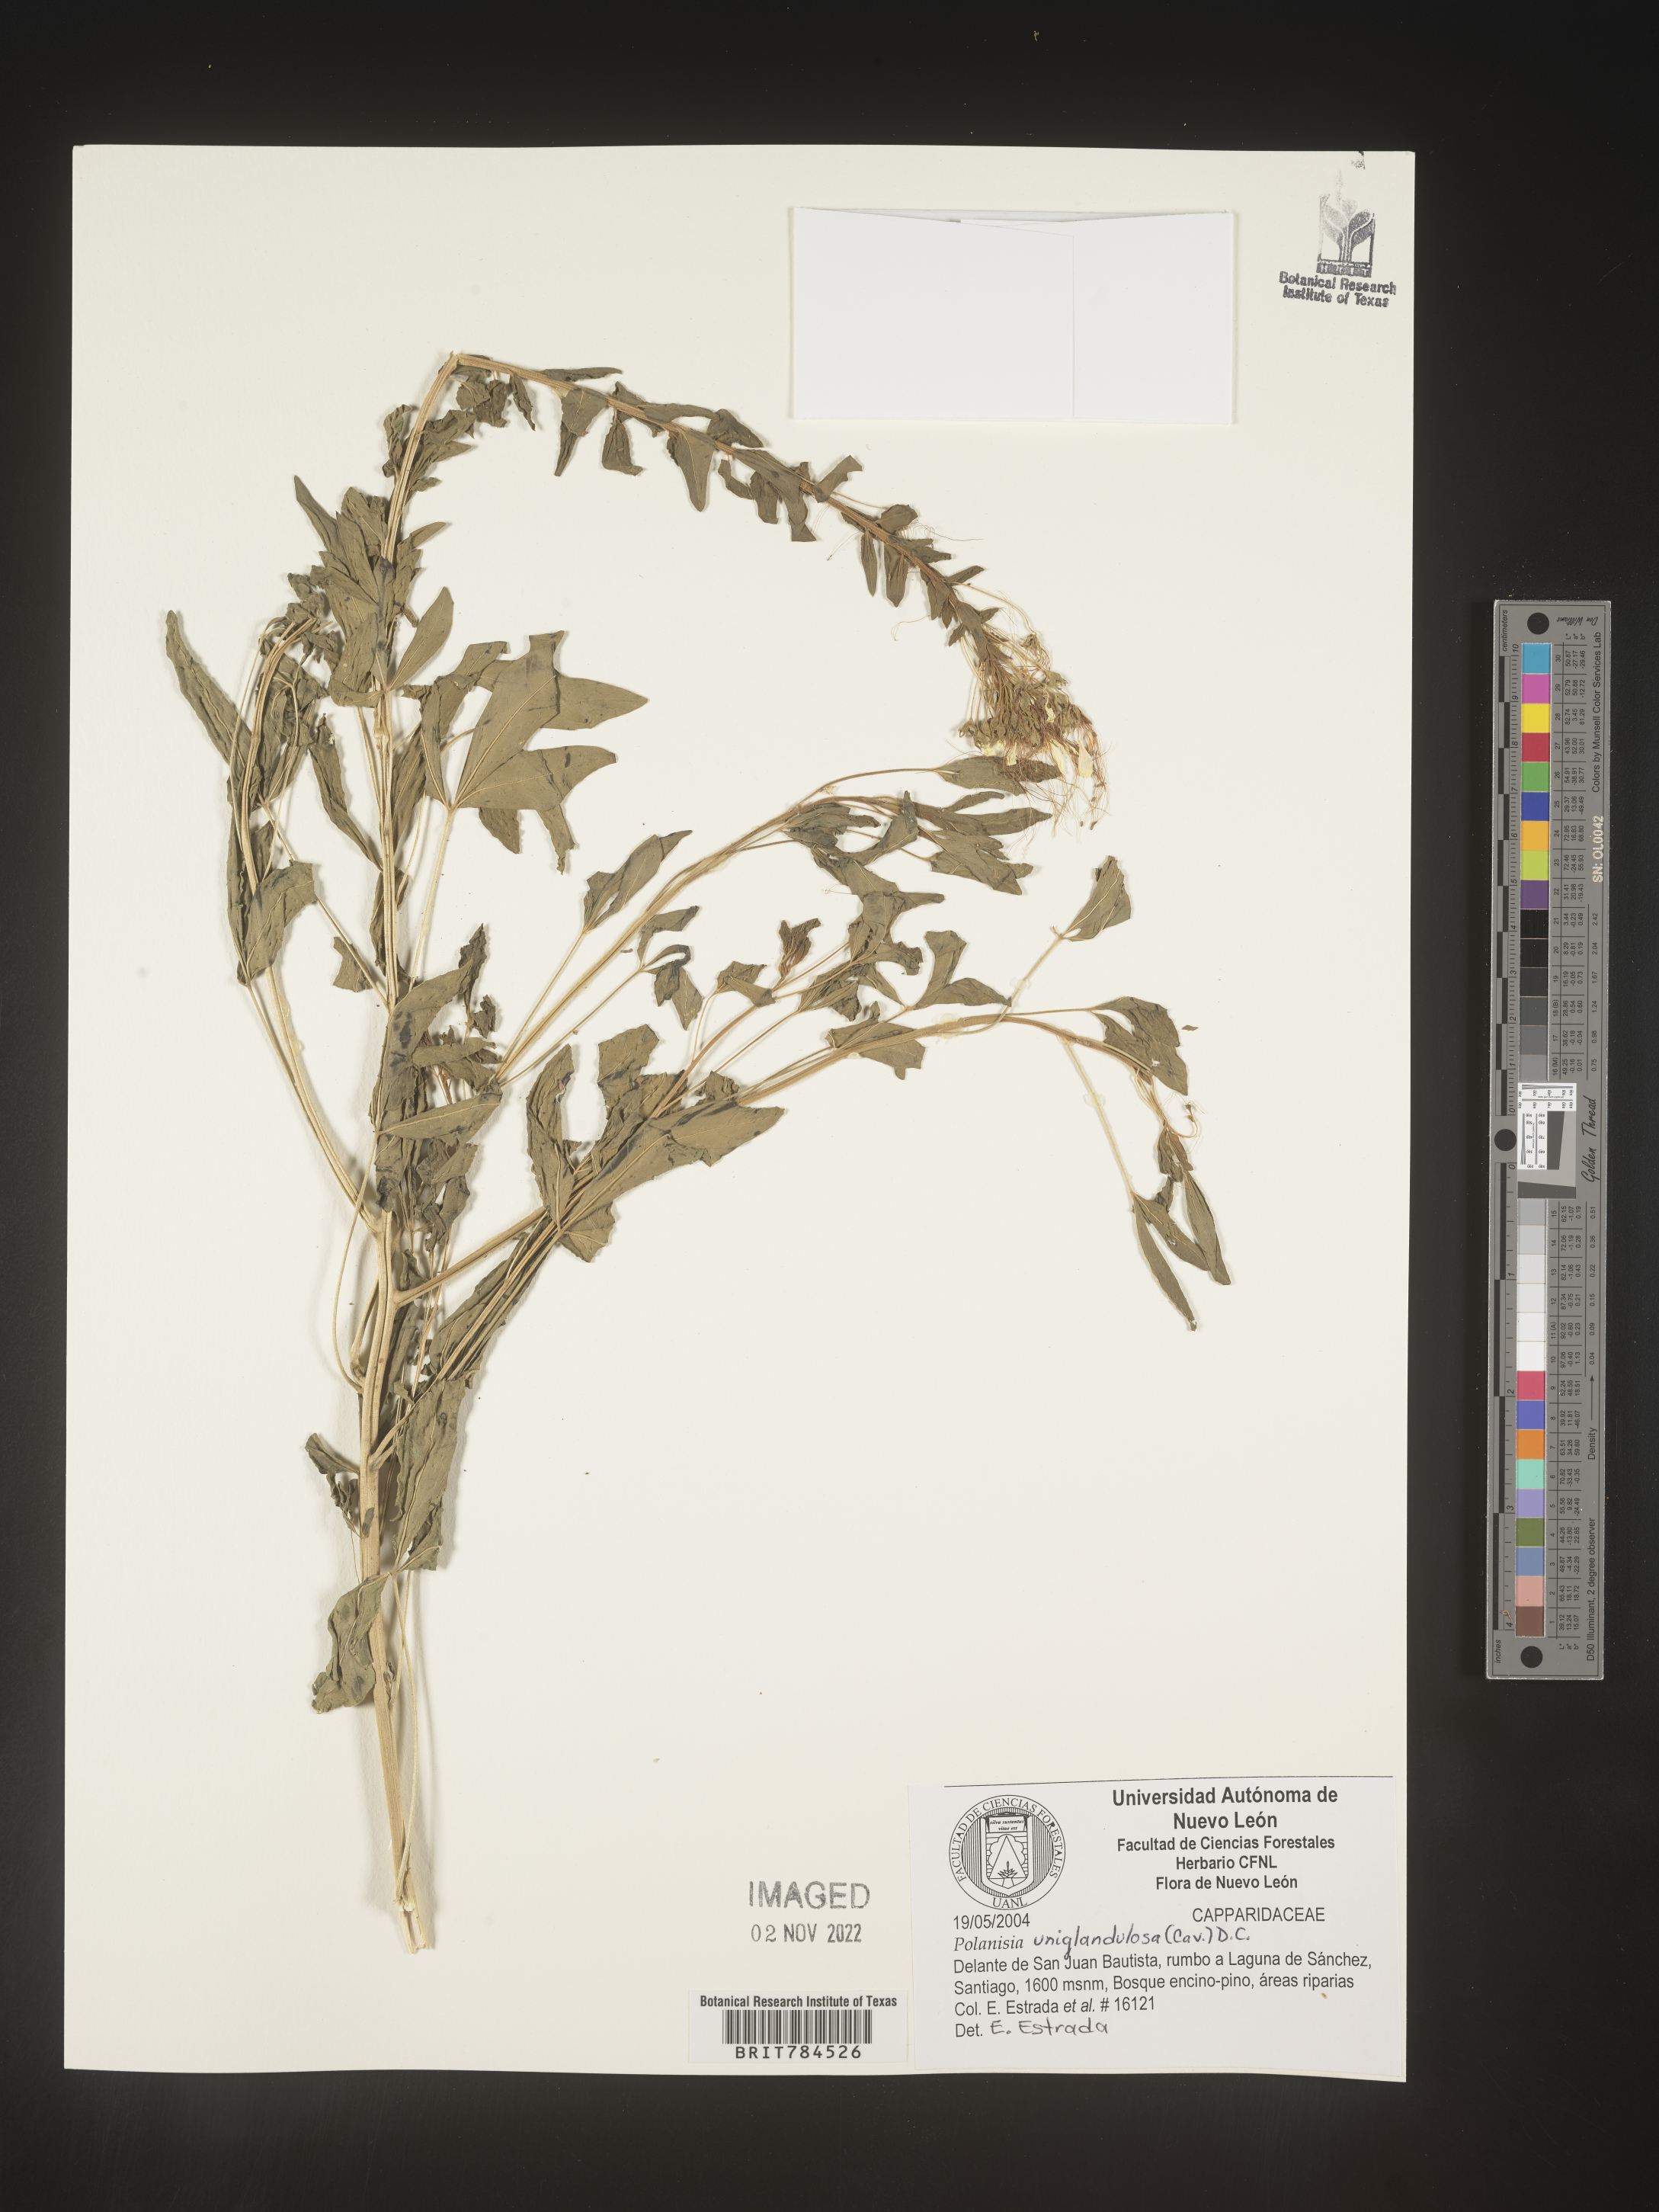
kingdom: Plantae
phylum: Tracheophyta
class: Magnoliopsida
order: Brassicales
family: Cleomaceae
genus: Polanisia
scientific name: Polanisia
